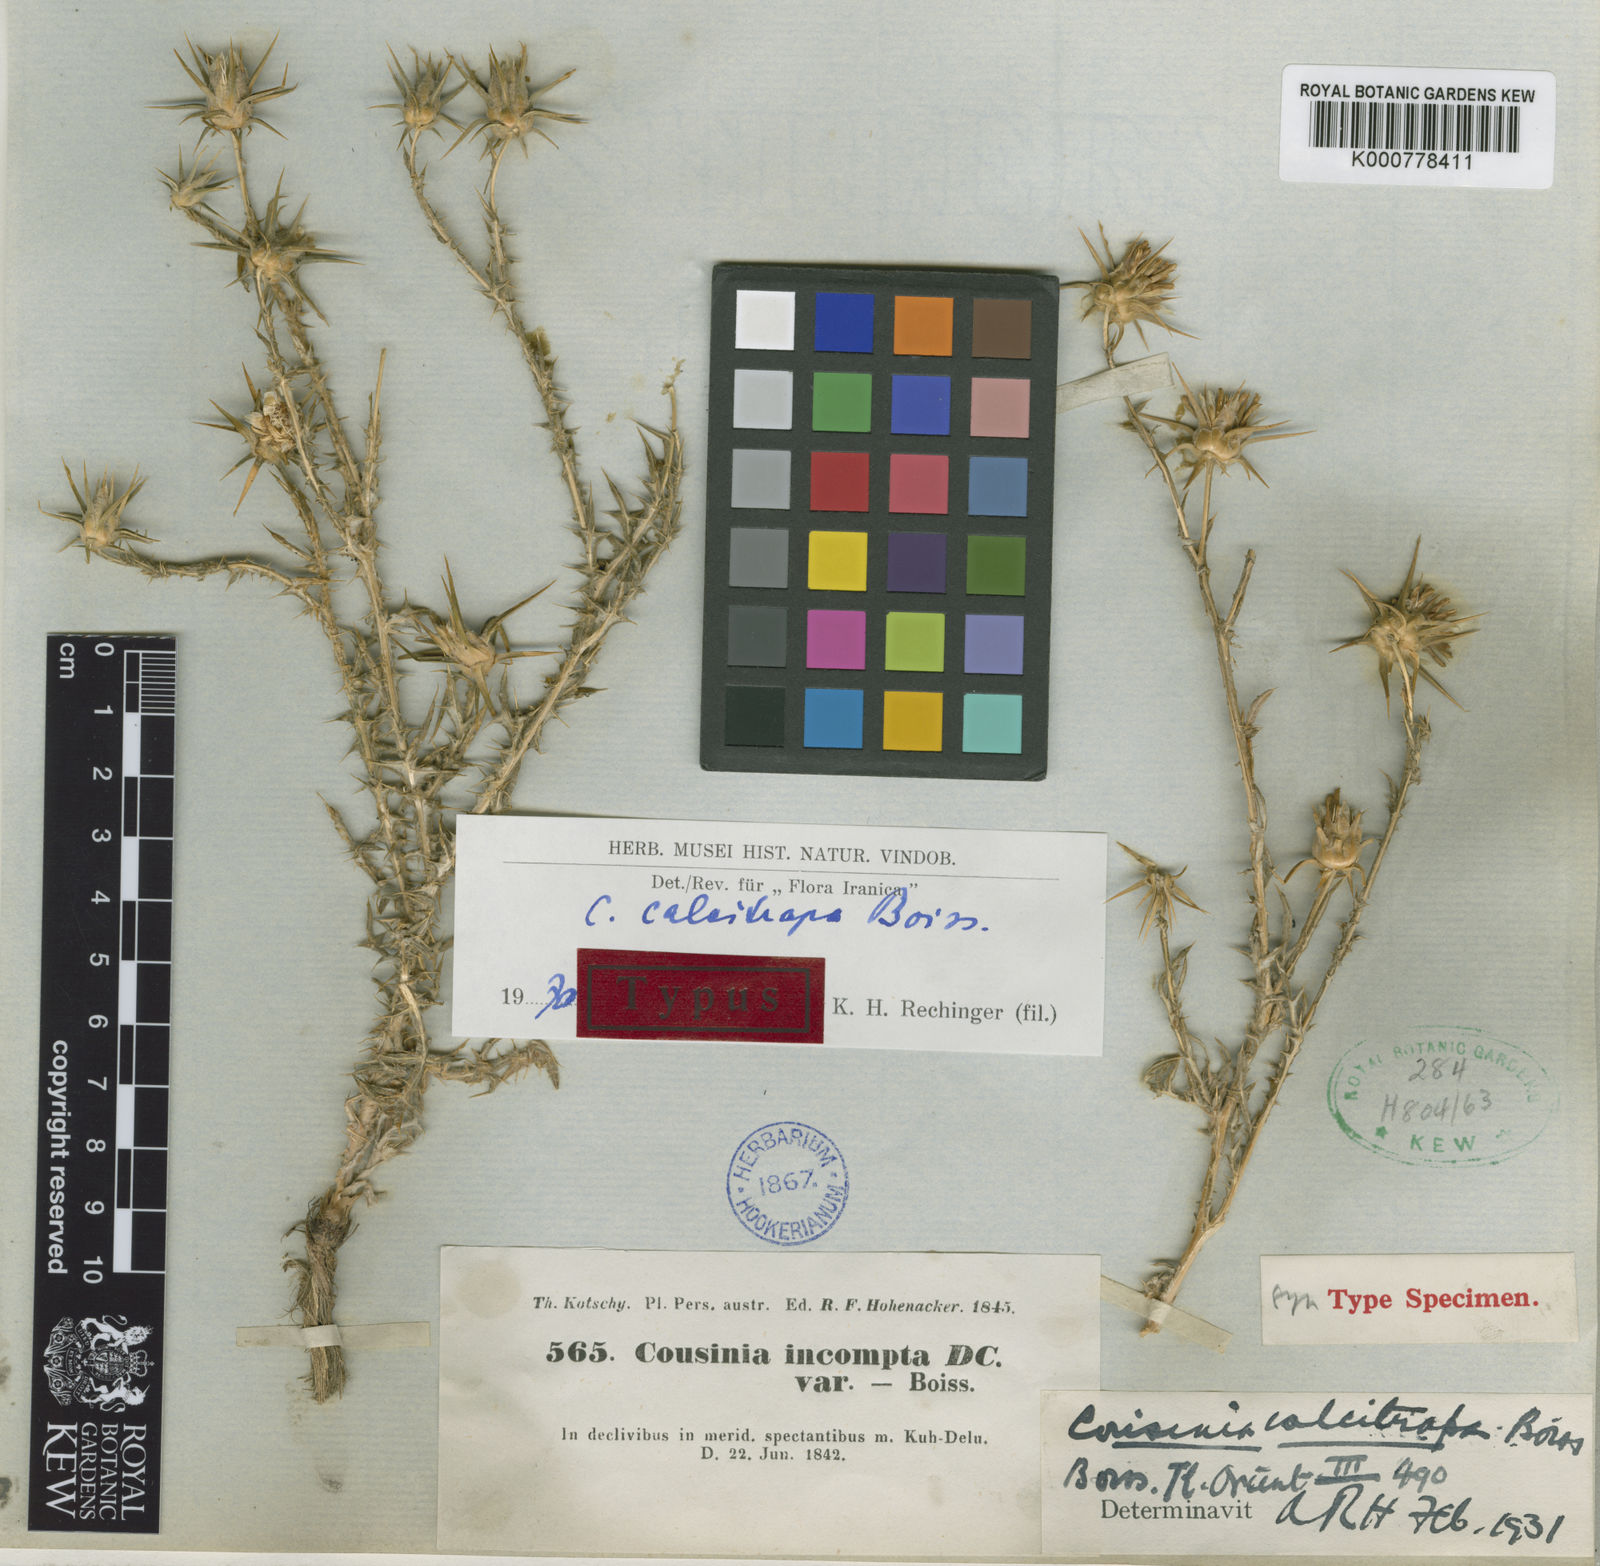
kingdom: Plantae
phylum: Tracheophyta
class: Magnoliopsida
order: Asterales
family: Asteraceae
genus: Cousinia
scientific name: Cousinia calcitrapa
